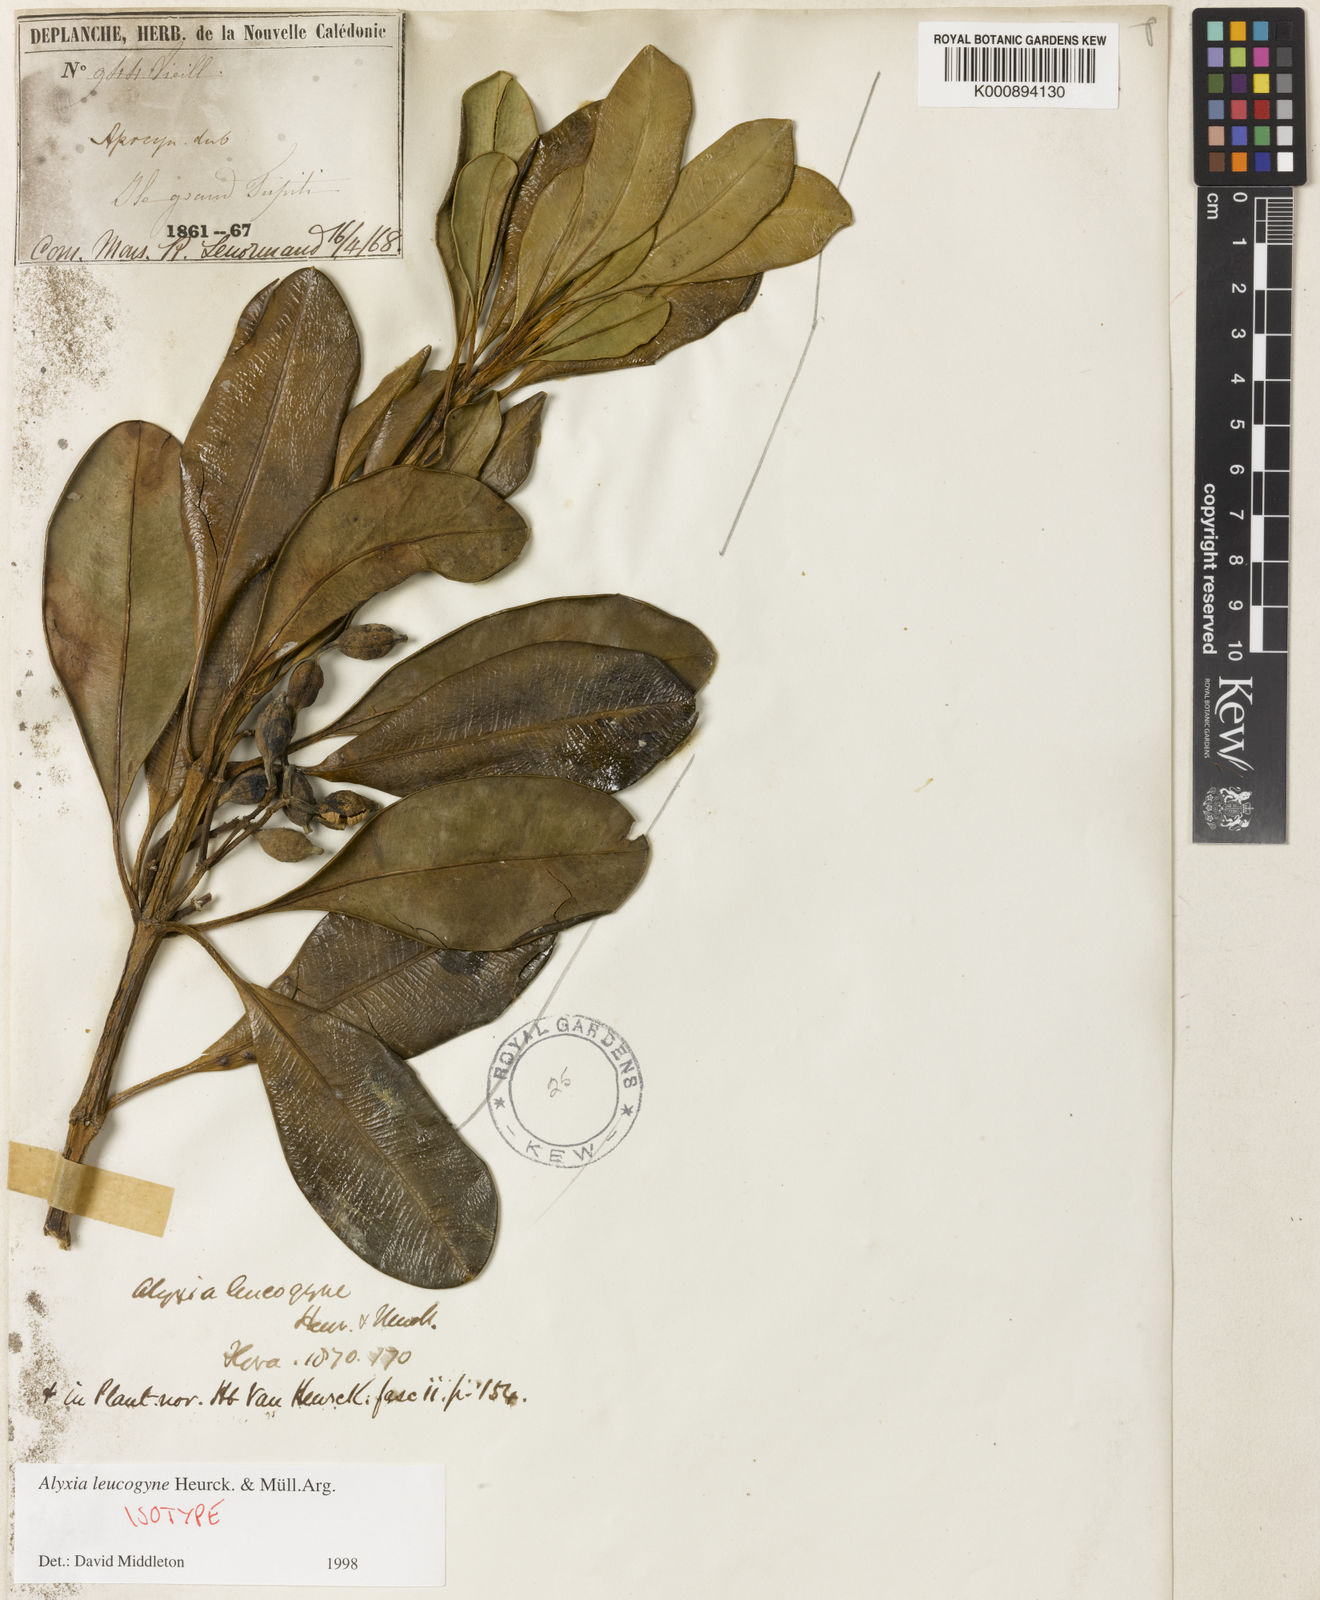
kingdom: Plantae
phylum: Tracheophyta
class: Magnoliopsida
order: Gentianales
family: Apocynaceae
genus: Alyxia
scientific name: Alyxia
